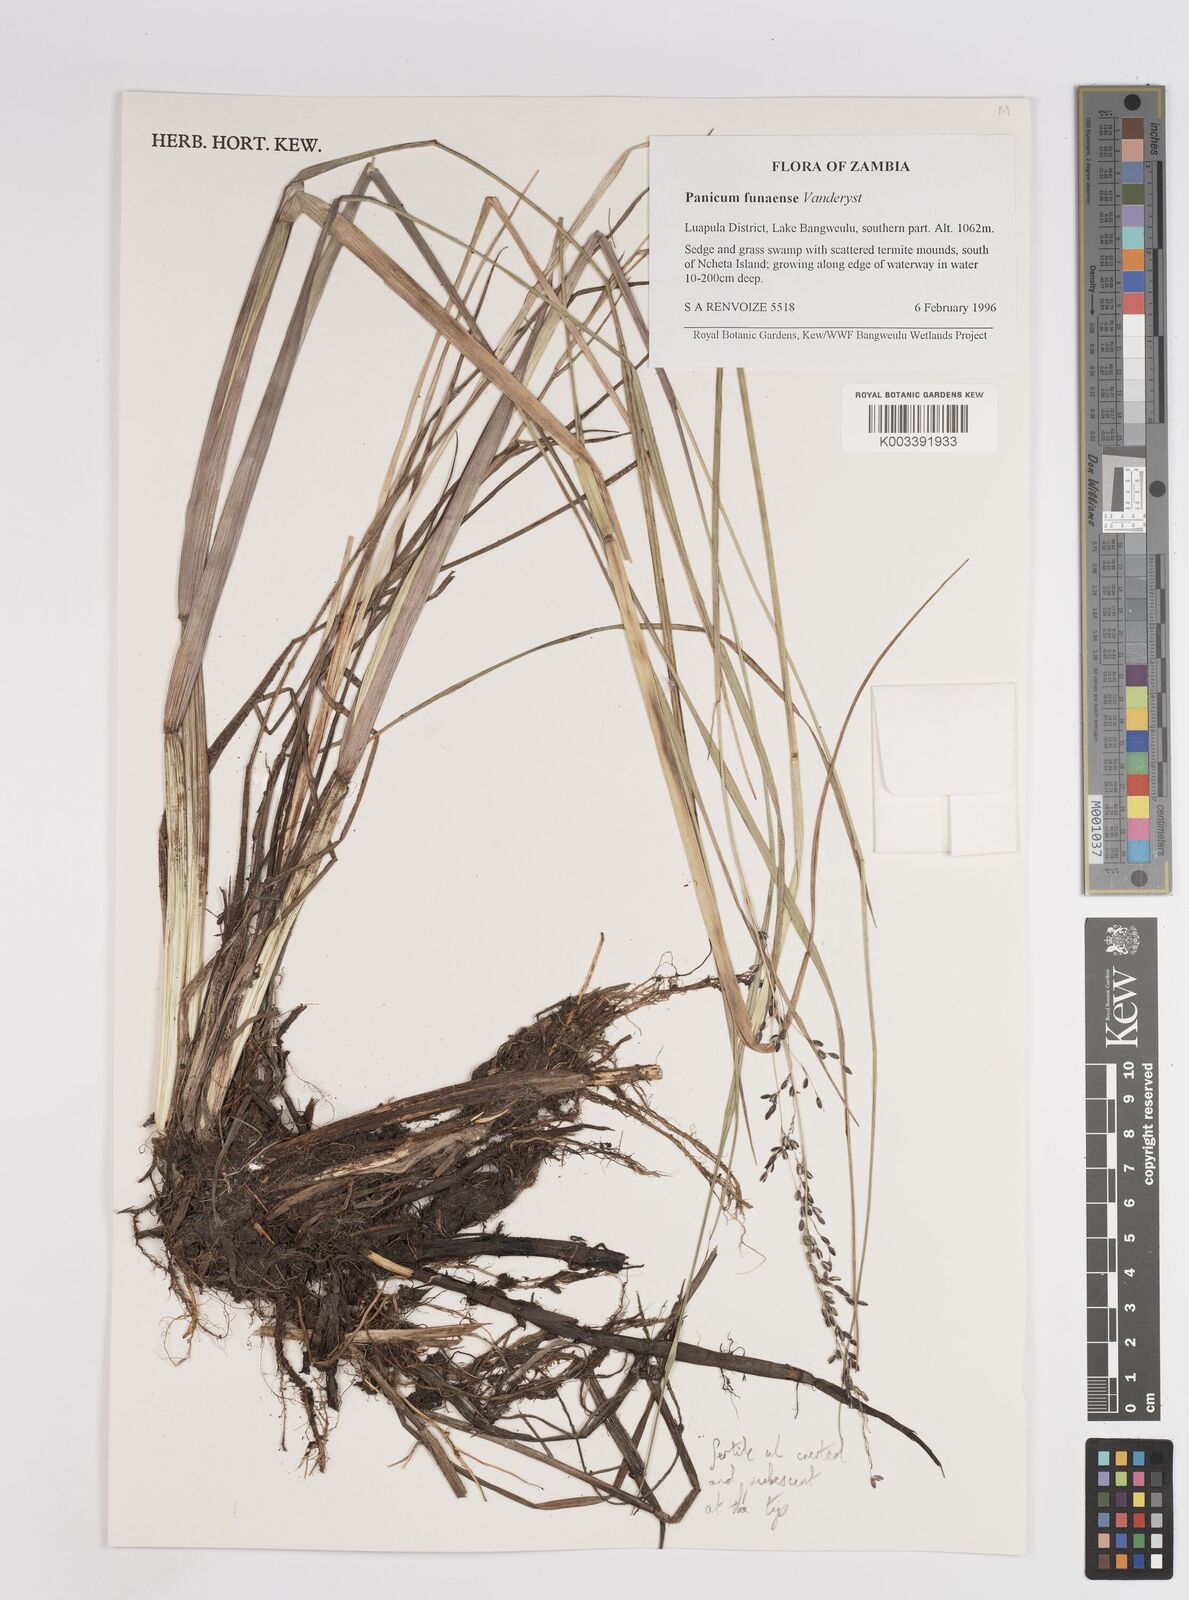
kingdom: Plantae
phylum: Tracheophyta
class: Liliopsida
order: Poales
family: Poaceae
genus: Panicum
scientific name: Panicum spongiosum
